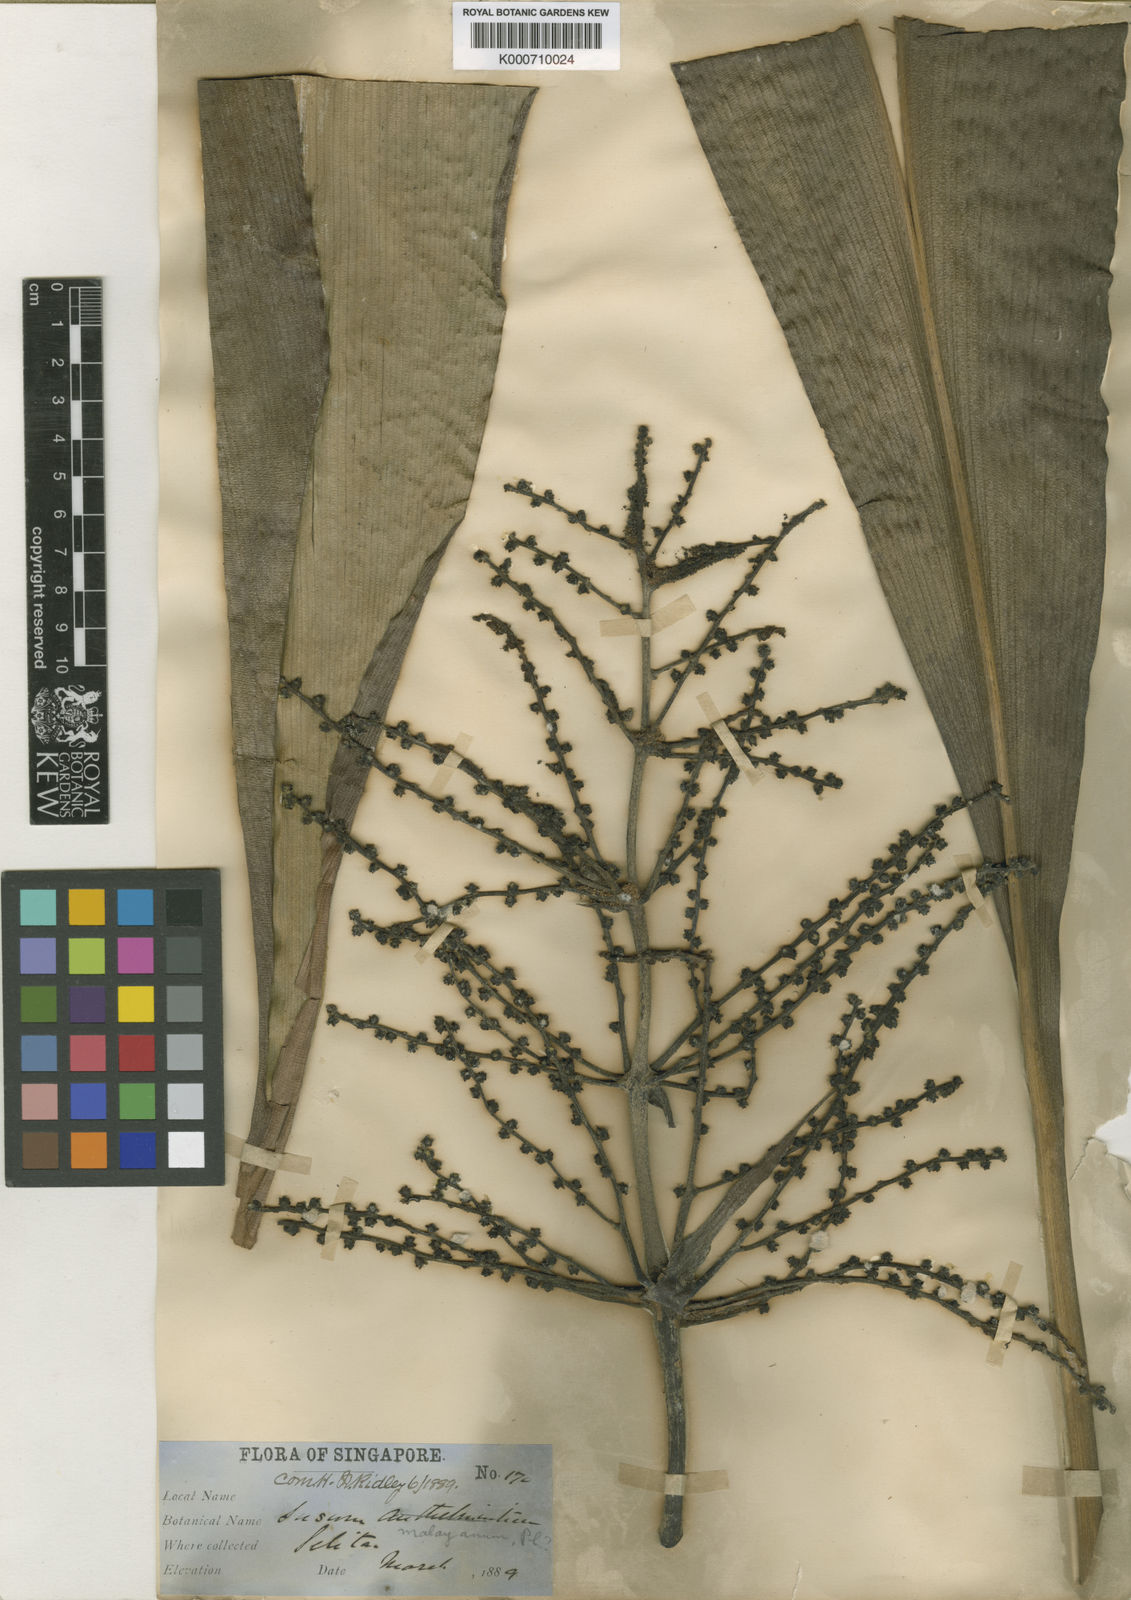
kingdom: Plantae
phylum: Tracheophyta
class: Liliopsida
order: Commelinales
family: Hanguanaceae
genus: Hanguana
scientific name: Hanguana malayana
